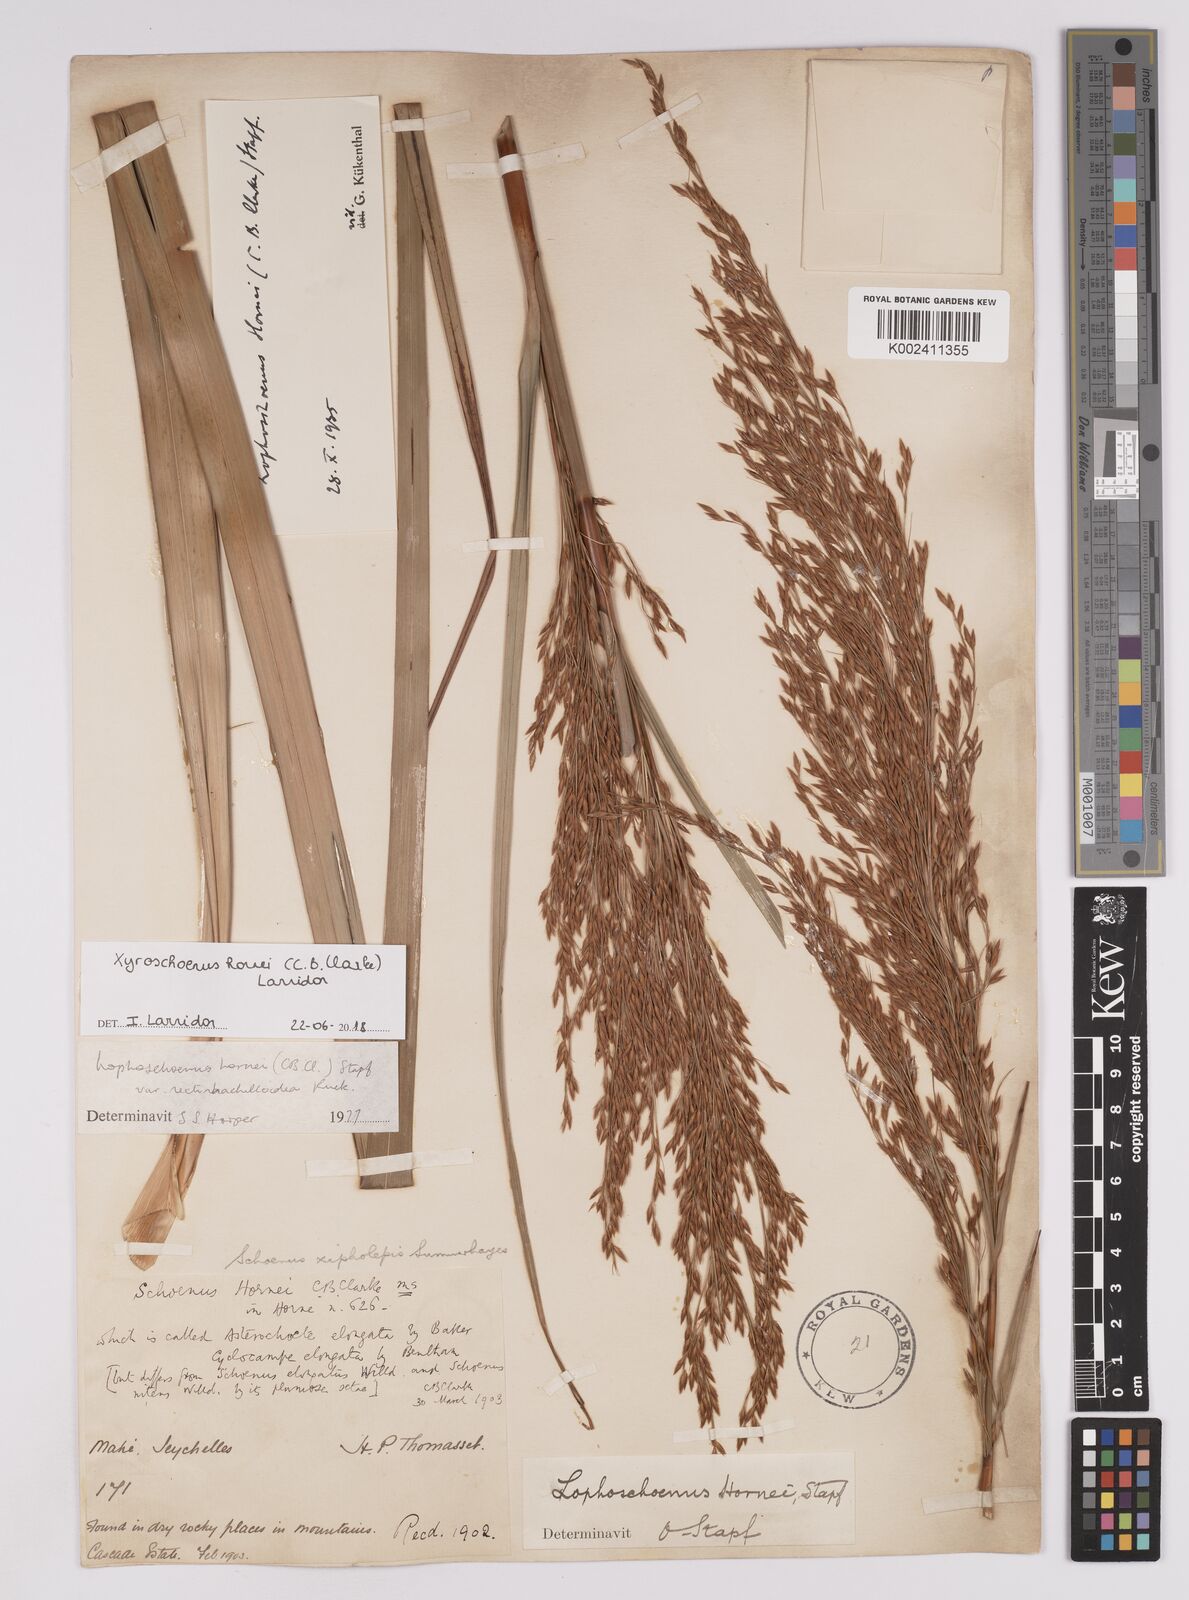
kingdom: Plantae
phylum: Tracheophyta
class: Liliopsida
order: Poales
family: Cyperaceae
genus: Xyroschoenus
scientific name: Xyroschoenus hornei
